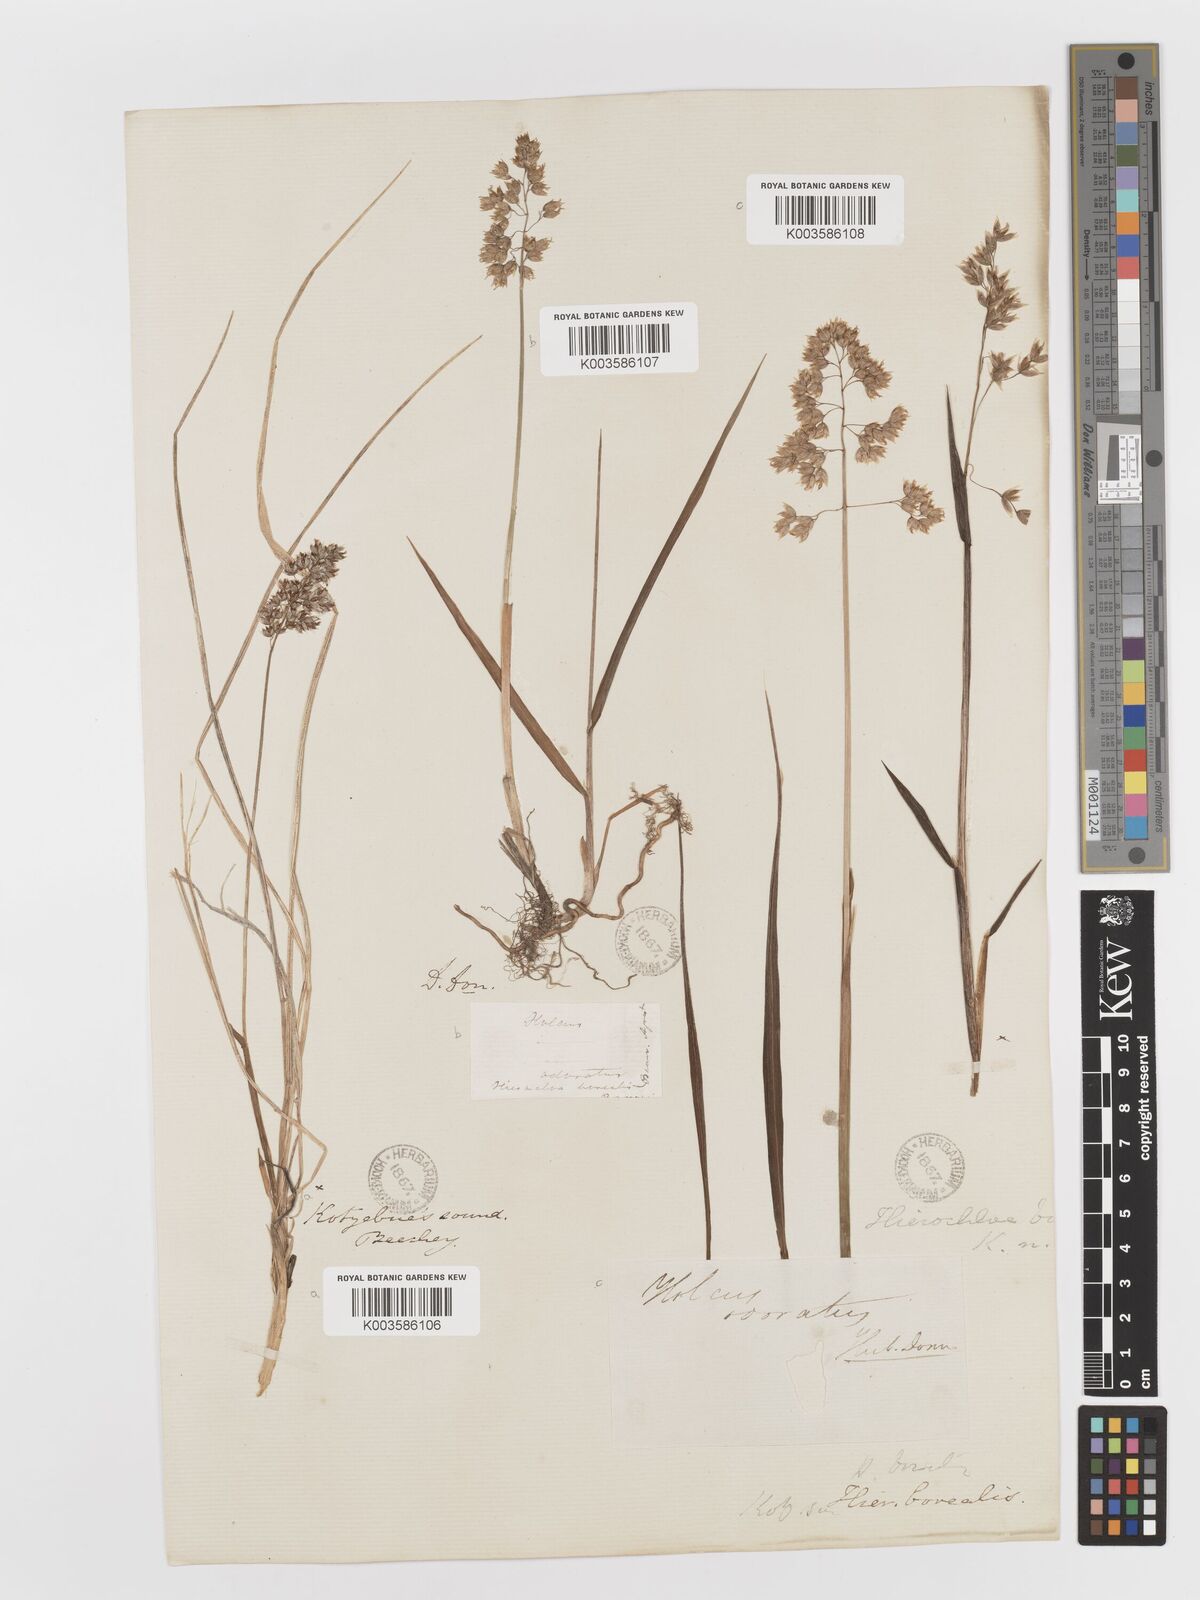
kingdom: Plantae
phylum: Tracheophyta
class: Liliopsida
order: Poales
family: Poaceae
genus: Anthoxanthum
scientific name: Anthoxanthum nitens
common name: Holy grass
